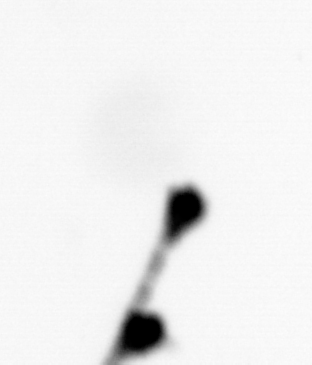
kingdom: Animalia
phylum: Chordata
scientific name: Chordata
